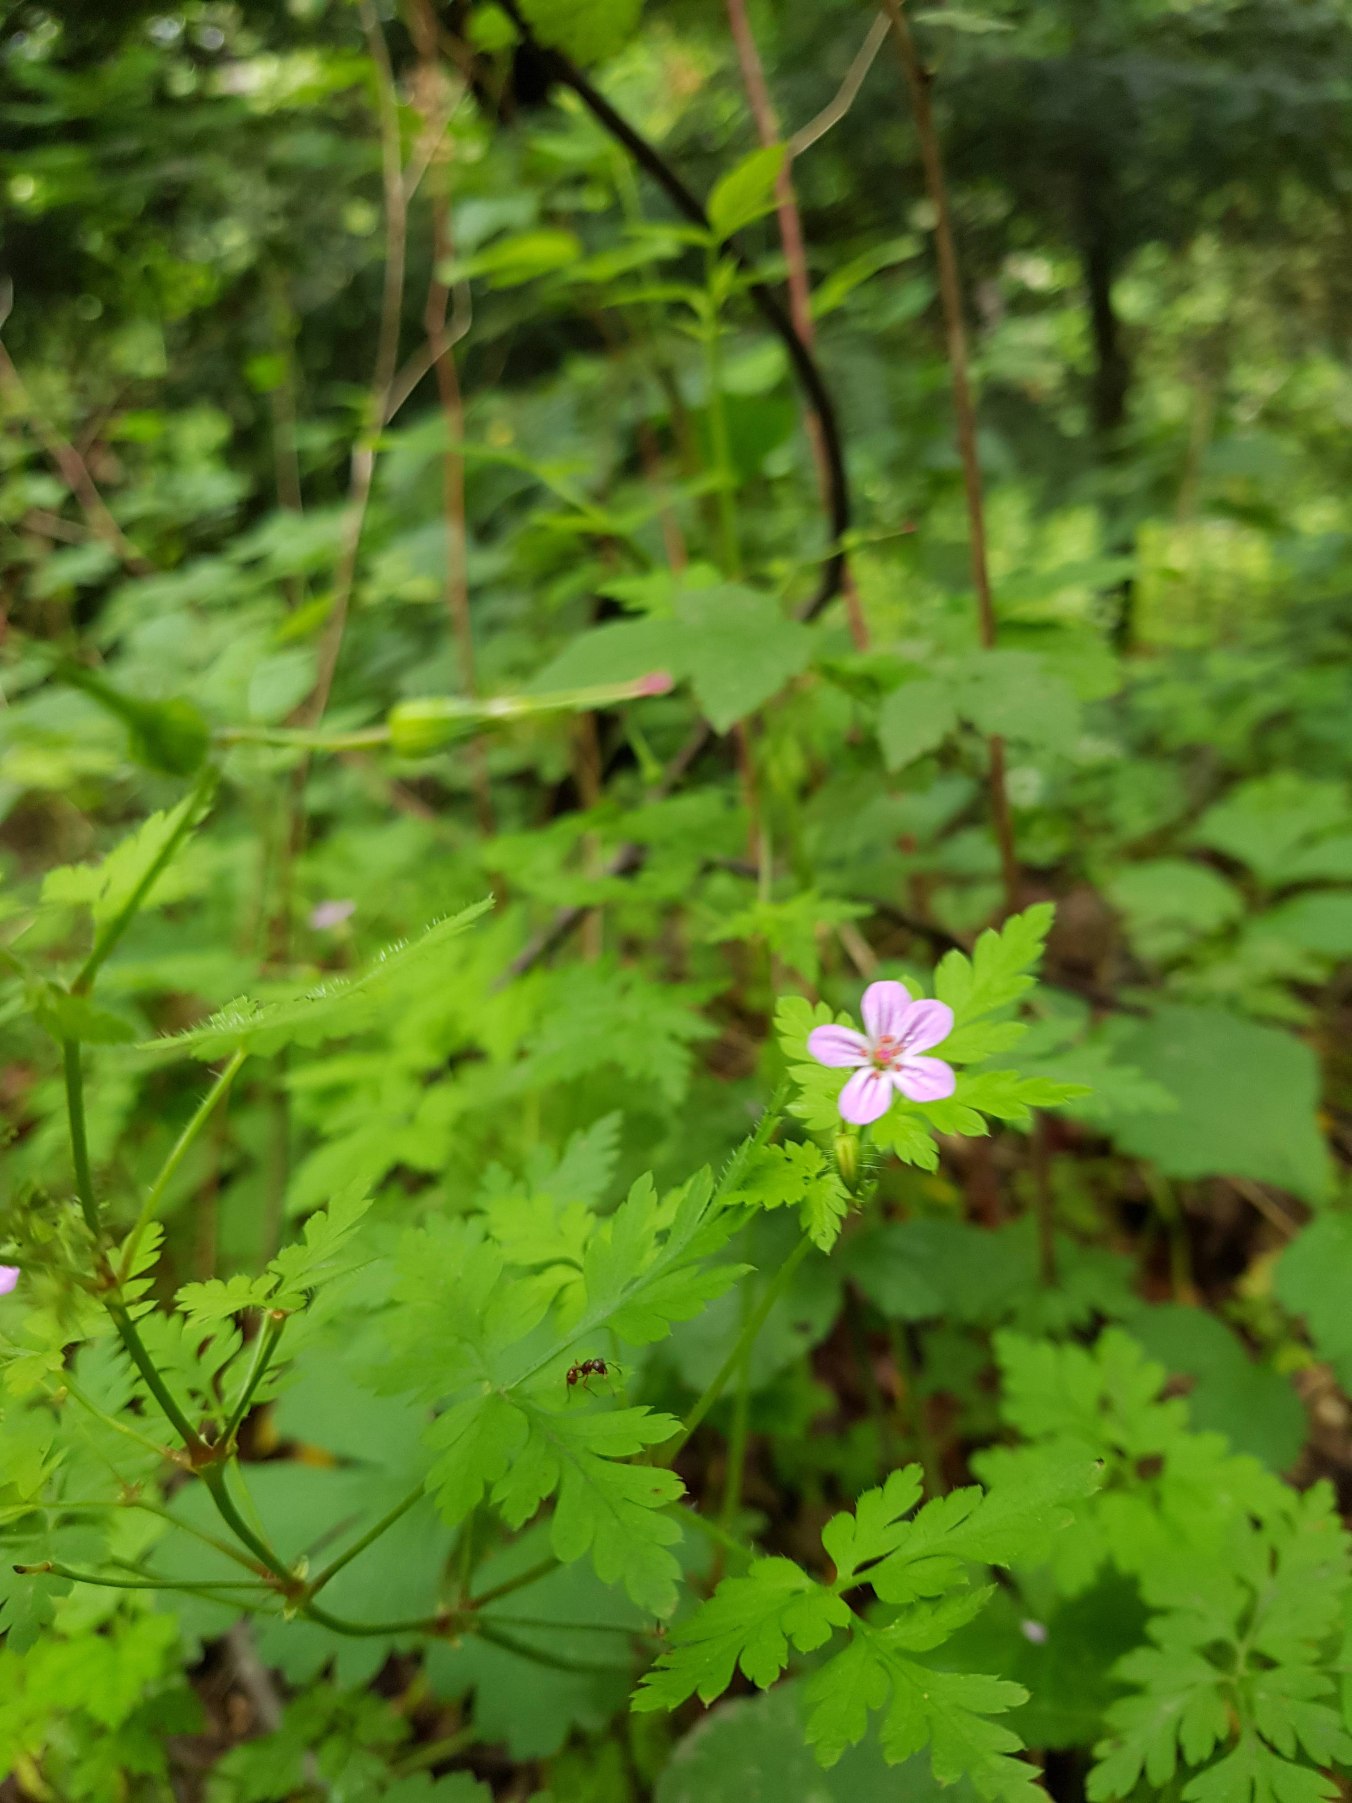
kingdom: Plantae
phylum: Tracheophyta
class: Magnoliopsida
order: Geraniales
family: Geraniaceae
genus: Geranium
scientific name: Geranium robertianum
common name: Stinkende storkenæb
